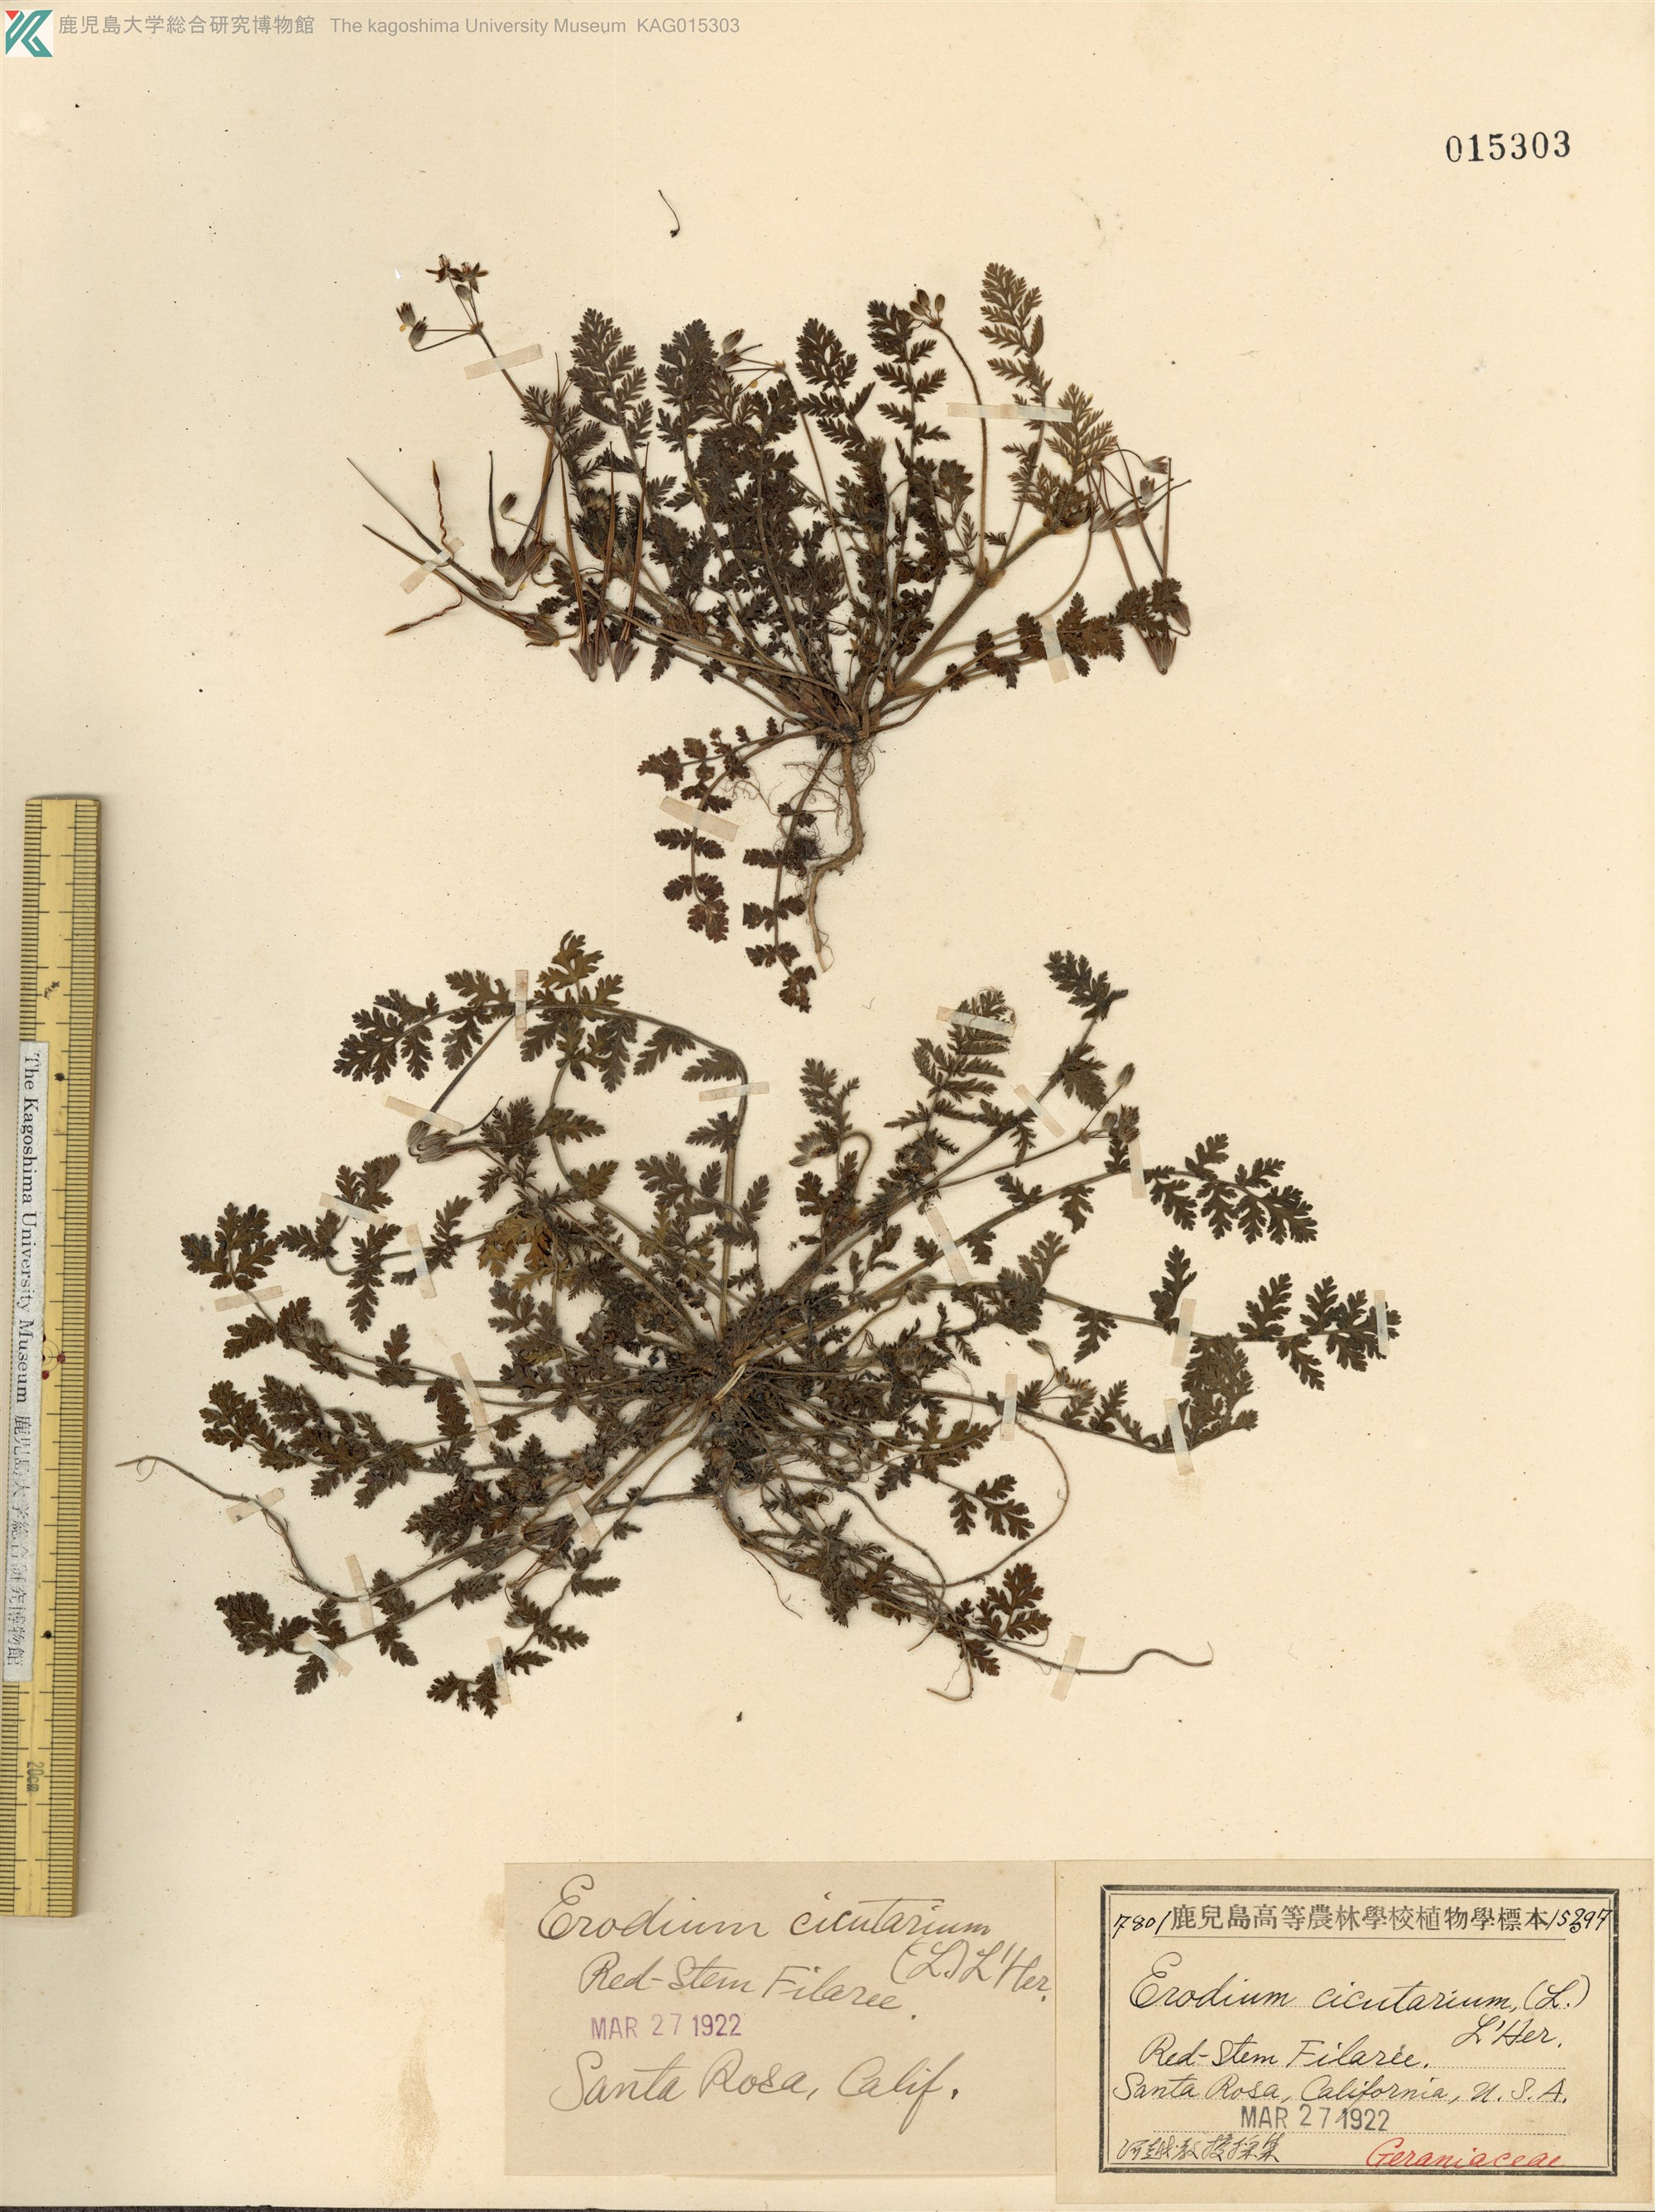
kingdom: Plantae
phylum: Tracheophyta
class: Magnoliopsida
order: Geraniales
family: Geraniaceae
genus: Erodium
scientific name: Erodium cicutarium
